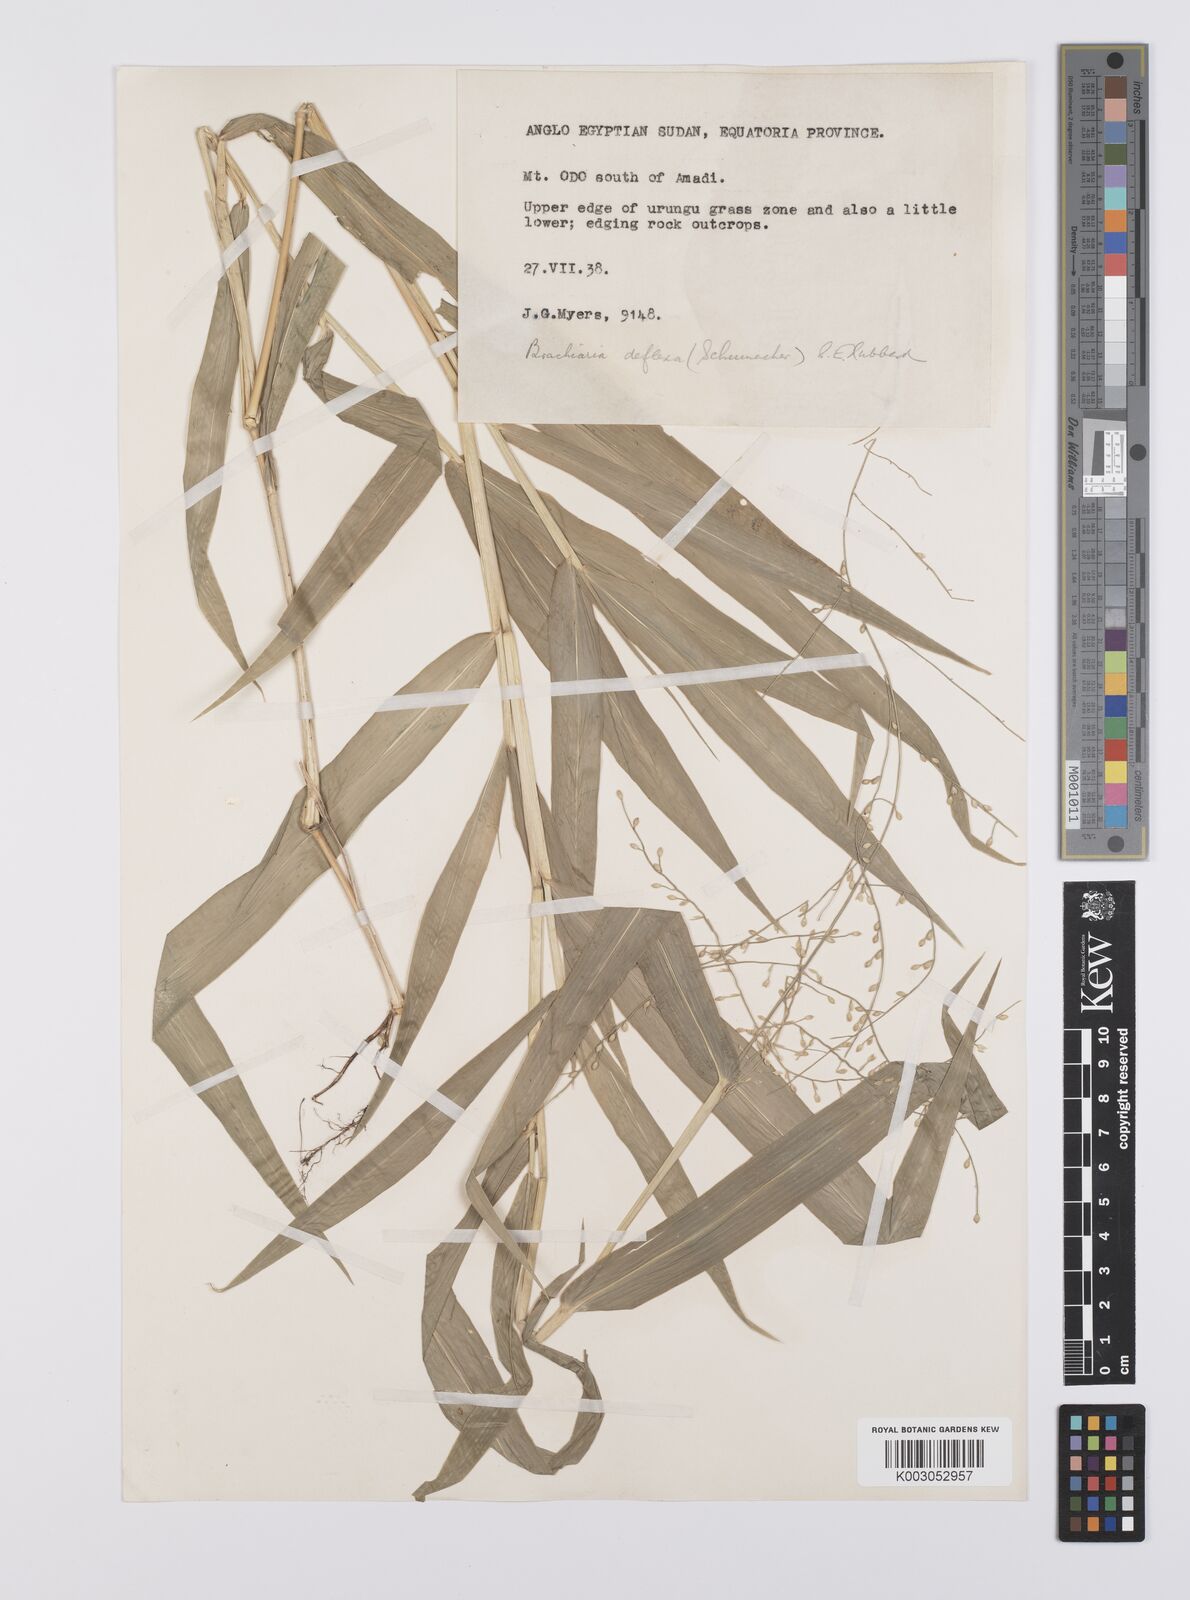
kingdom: Plantae
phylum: Tracheophyta
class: Liliopsida
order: Poales
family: Poaceae
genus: Urochloa
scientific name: Urochloa deflexa
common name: Guinea millet
